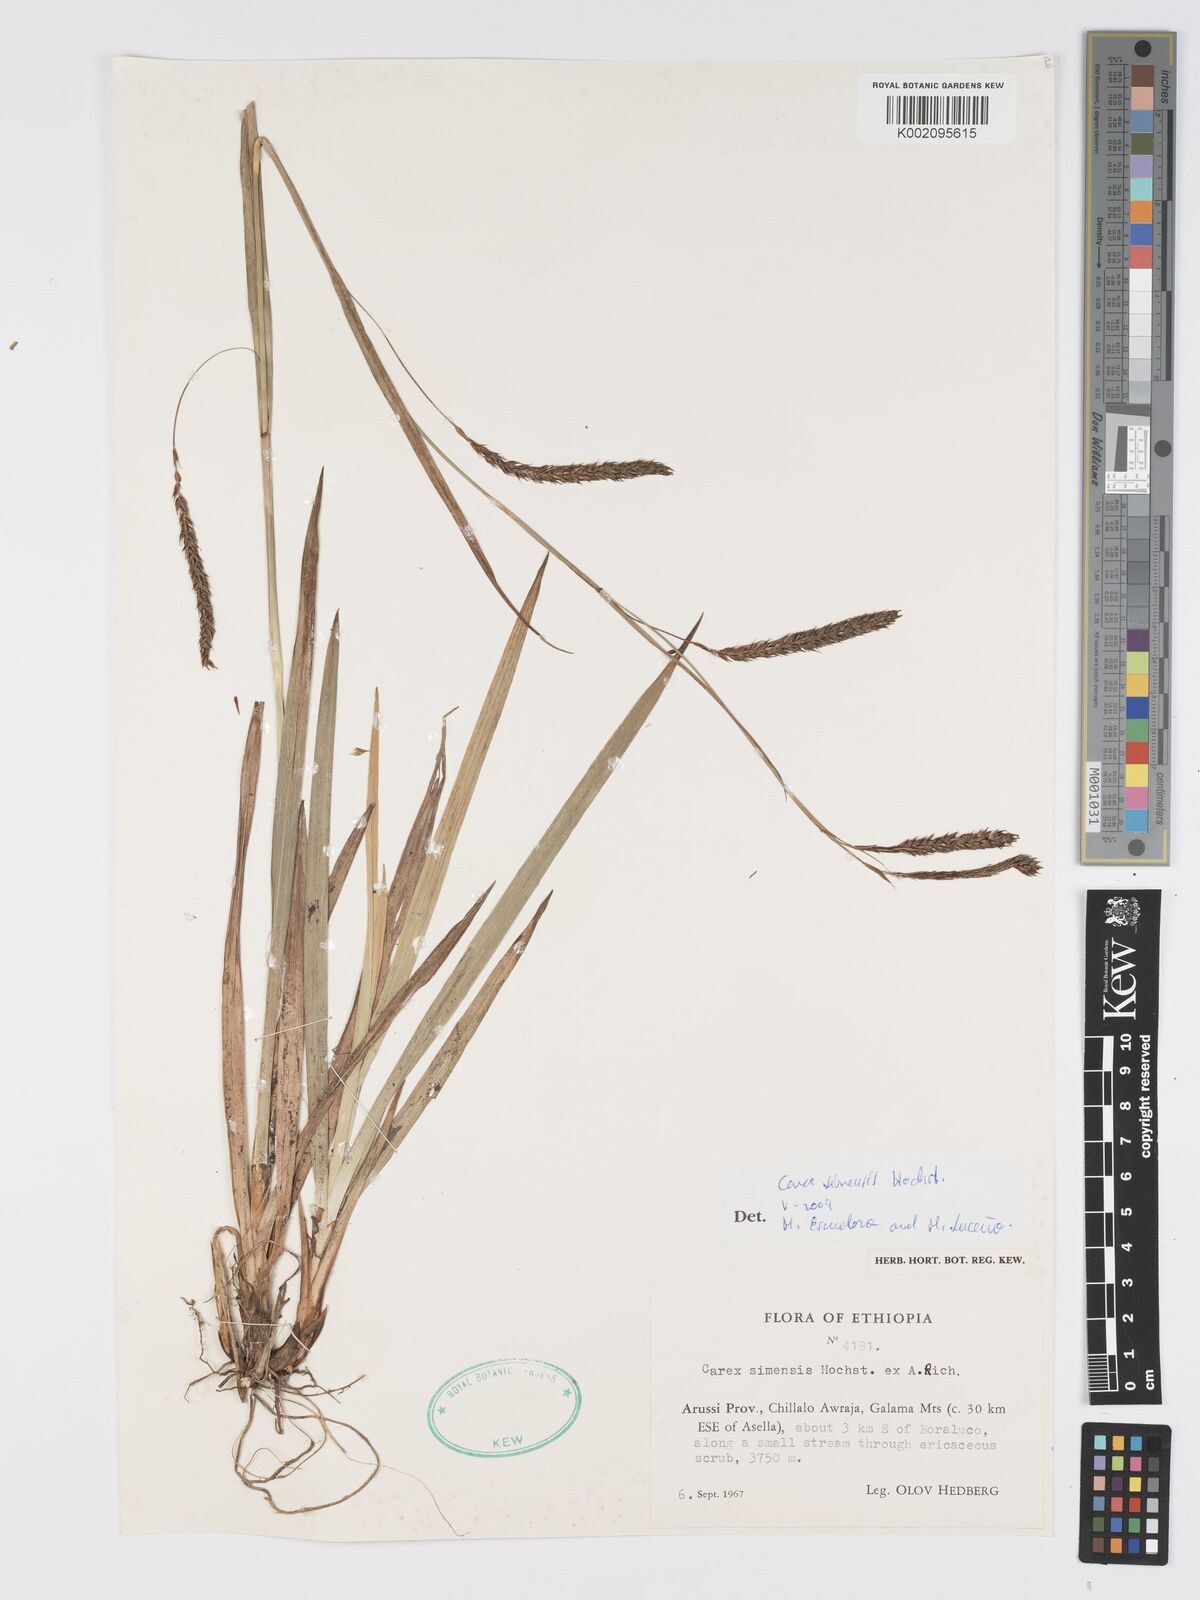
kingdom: Plantae
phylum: Tracheophyta
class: Liliopsida
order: Poales
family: Cyperaceae
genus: Carex
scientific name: Carex simensis
